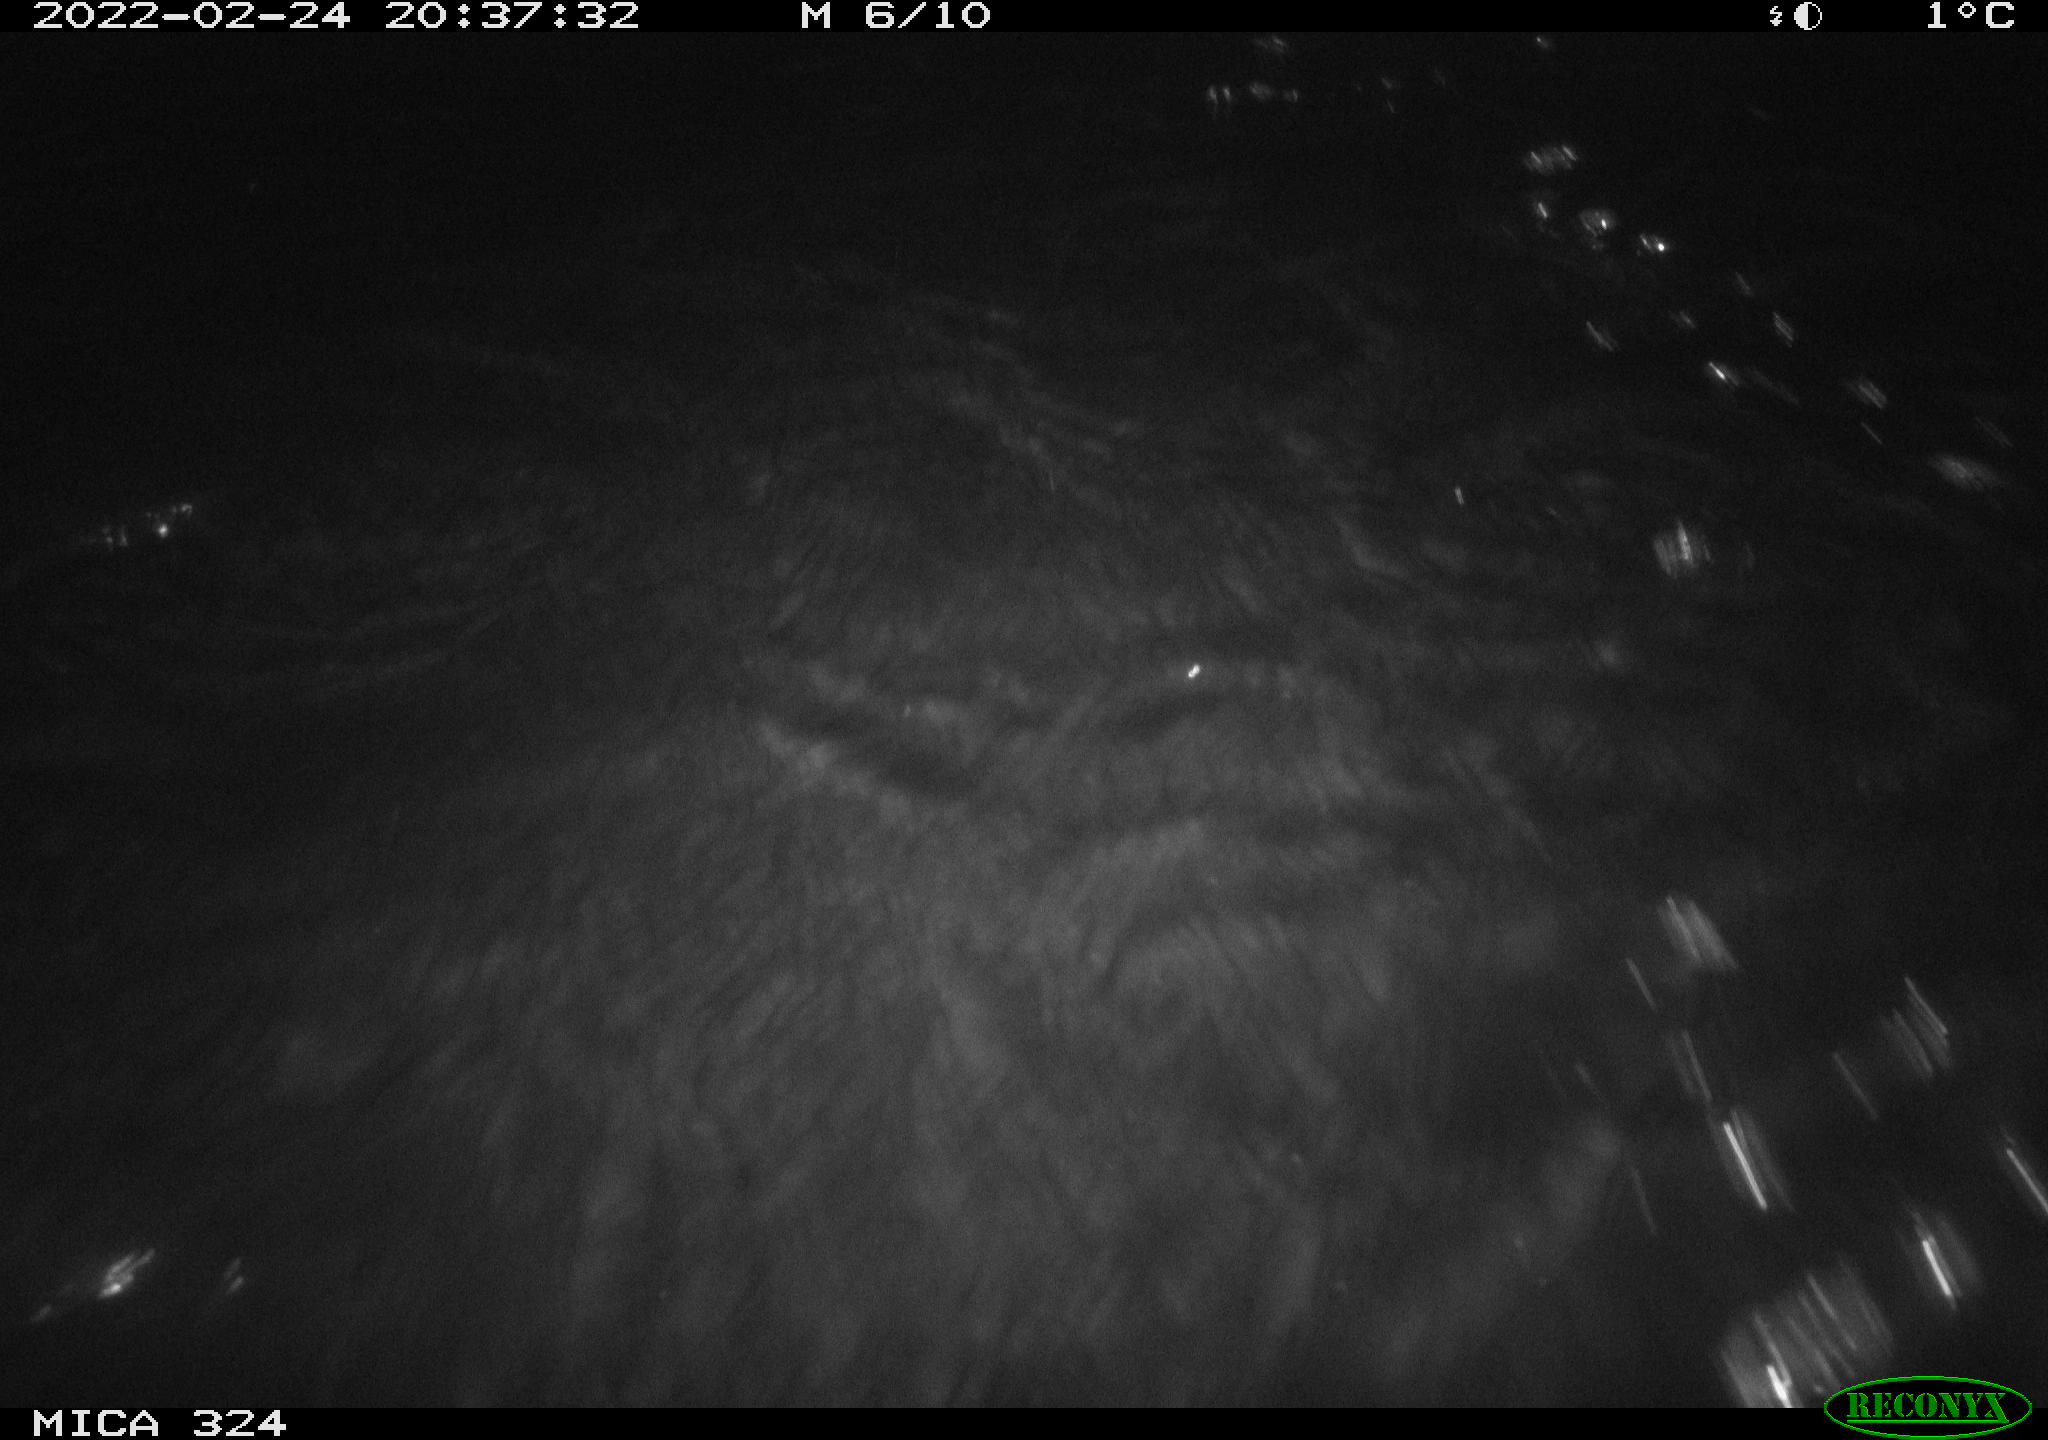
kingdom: Animalia
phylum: Chordata
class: Mammalia
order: Rodentia
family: Cricetidae
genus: Ondatra
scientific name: Ondatra zibethicus
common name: Muskrat
